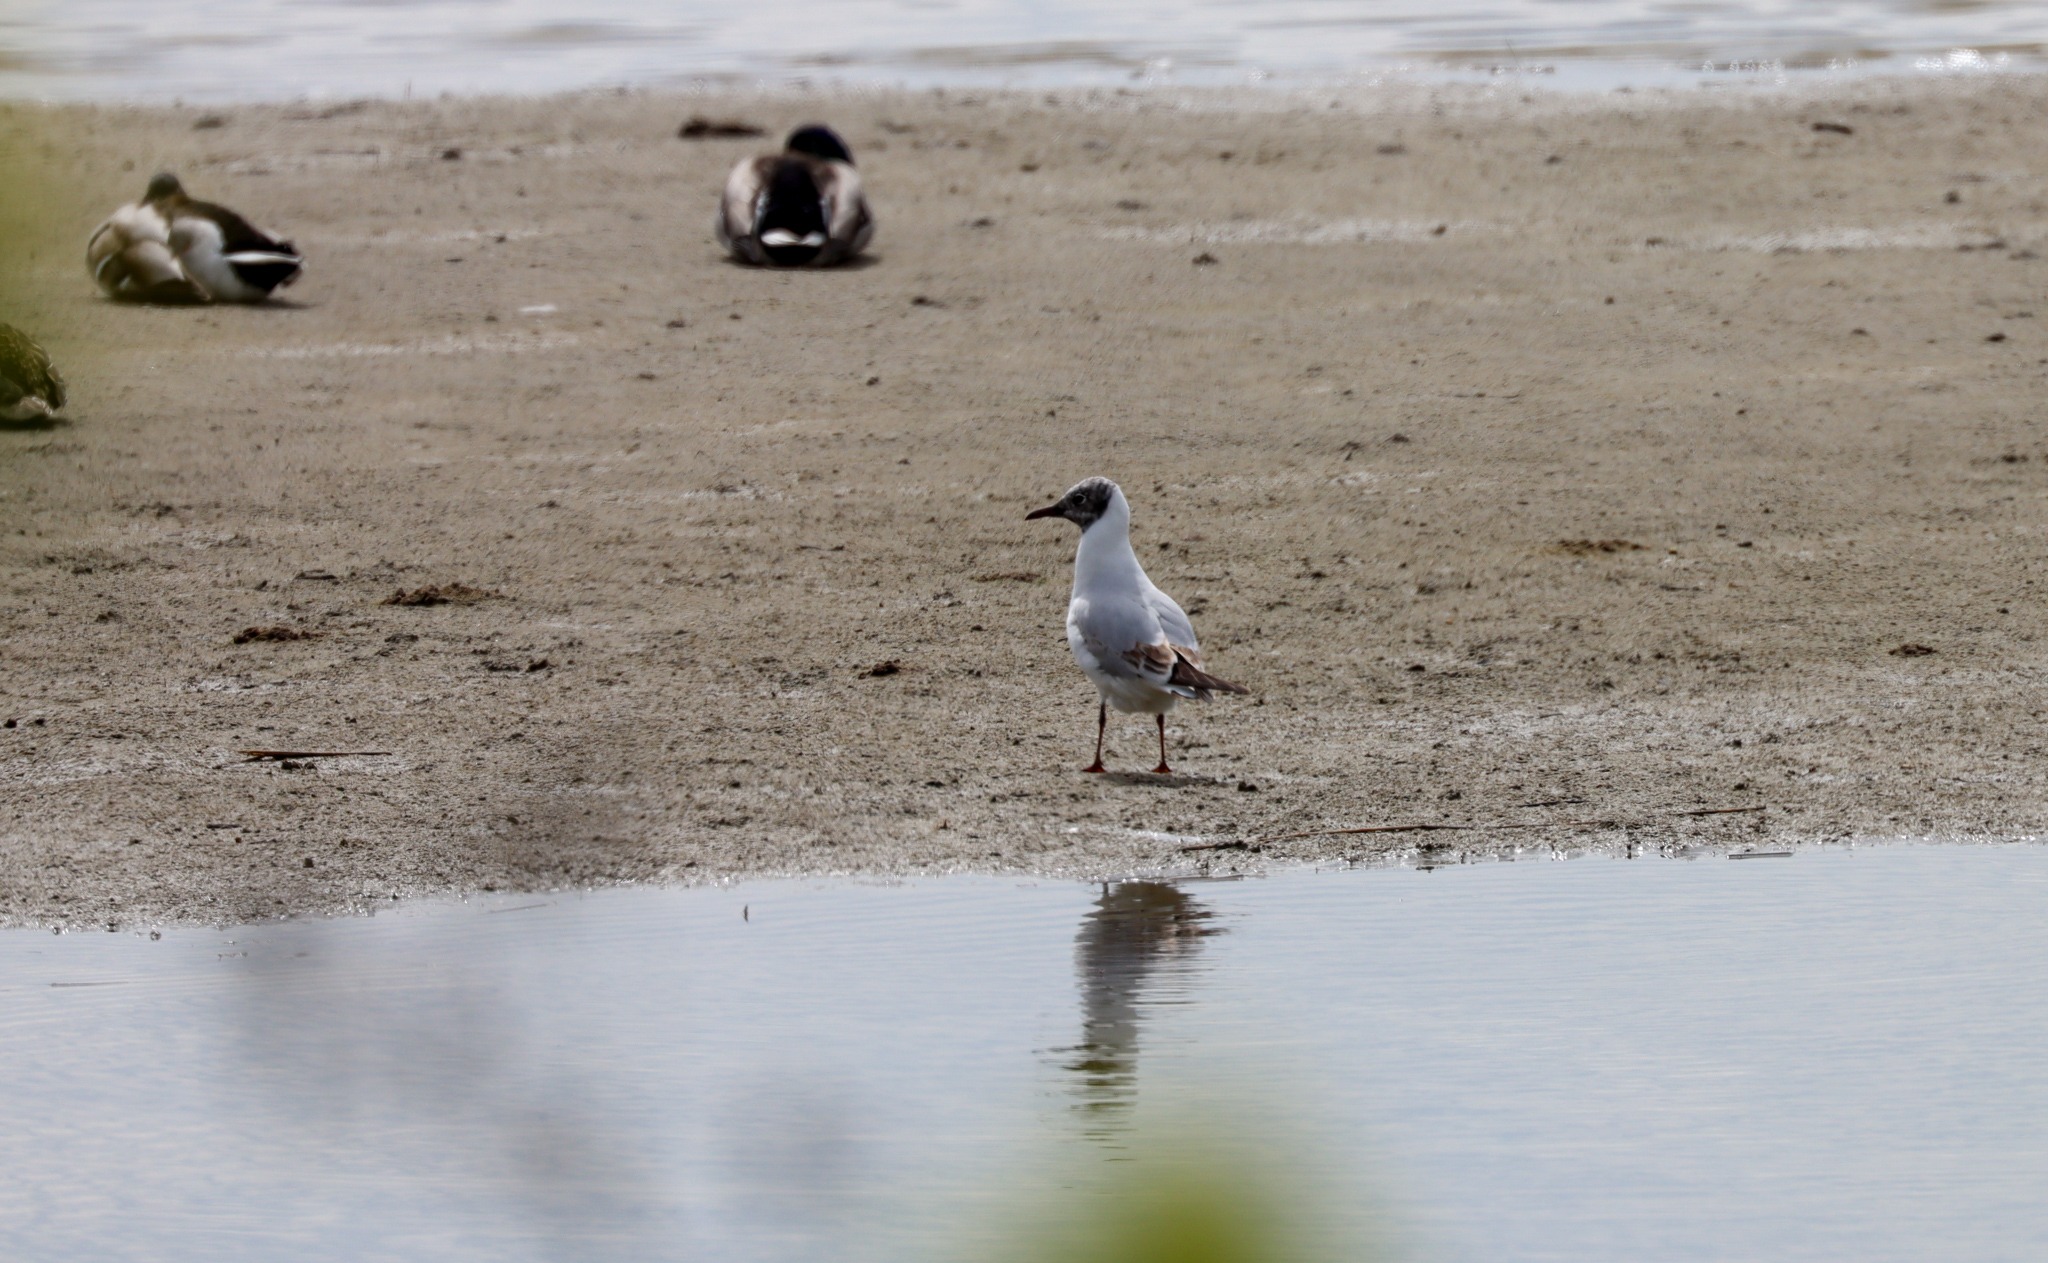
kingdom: Animalia
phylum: Chordata
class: Aves
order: Charadriiformes
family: Laridae
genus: Chroicocephalus
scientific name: Chroicocephalus ridibundus
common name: Hættemåge
